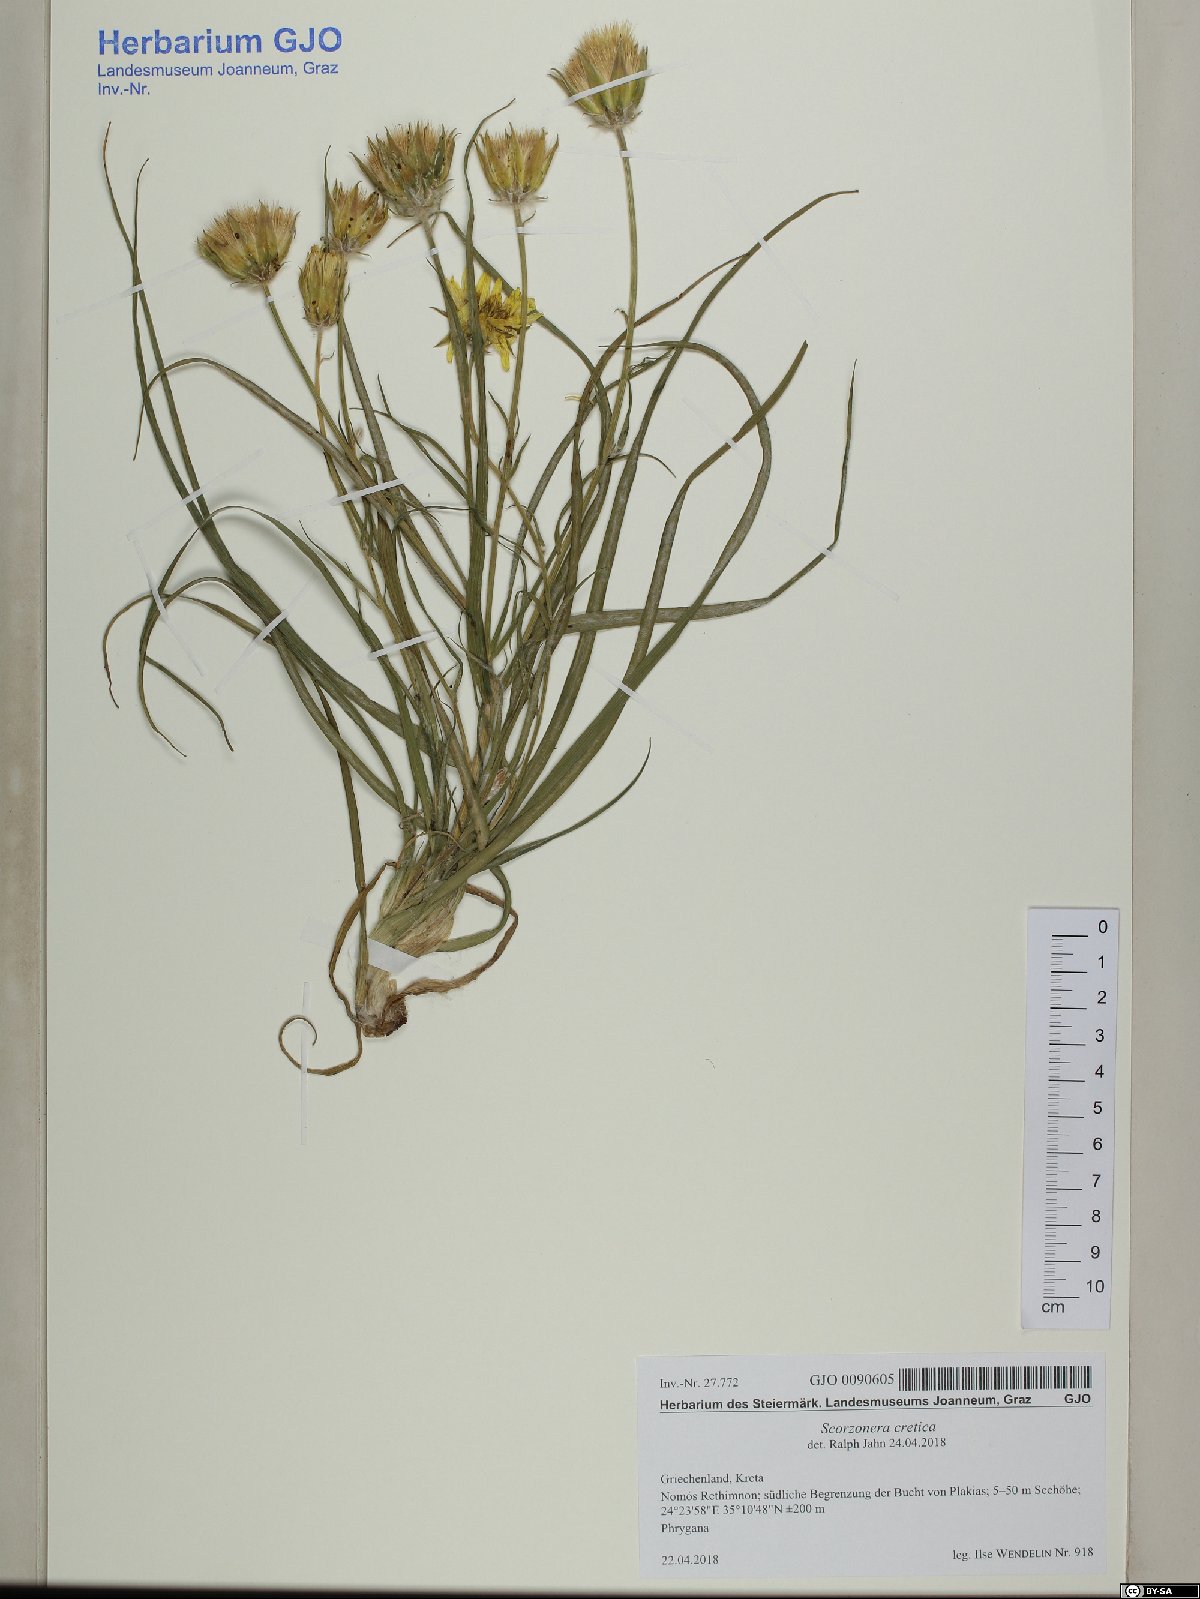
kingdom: Plantae
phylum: Tracheophyta
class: Magnoliopsida
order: Asterales
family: Asteraceae
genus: Gelasia
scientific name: Gelasia cretica
